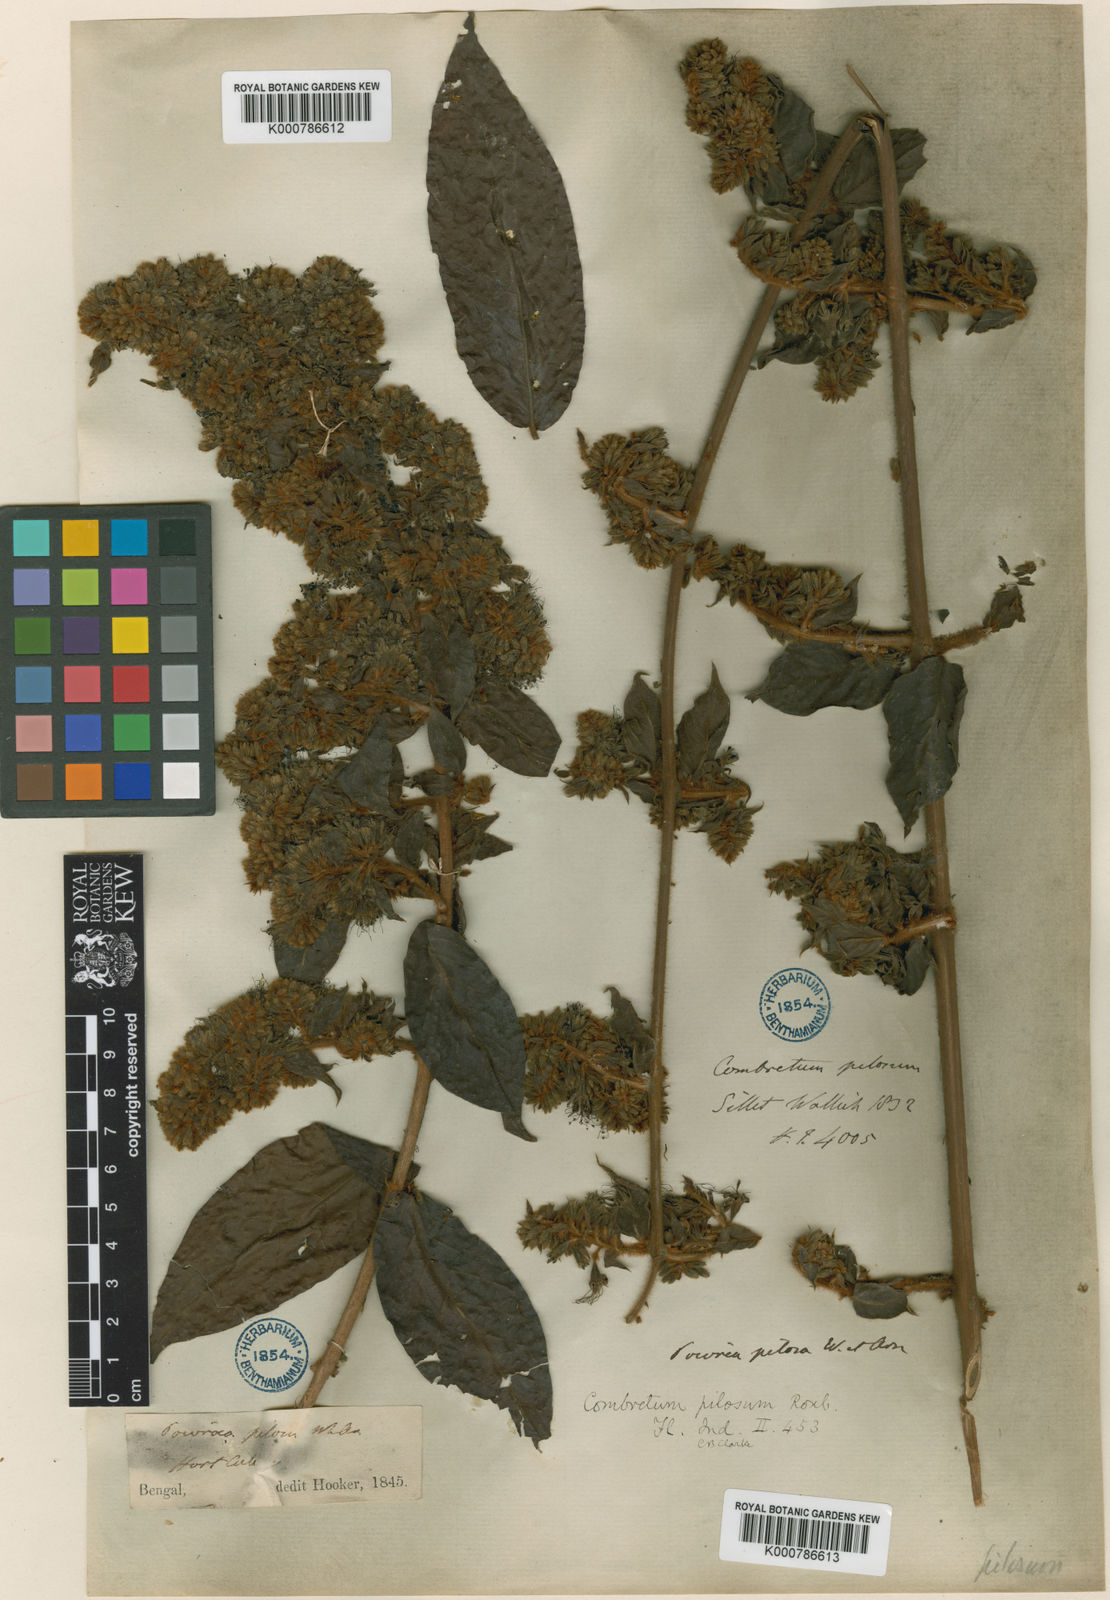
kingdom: Plantae
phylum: Tracheophyta
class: Magnoliopsida
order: Myrtales
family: Combretaceae
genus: Combretum
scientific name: Combretum
